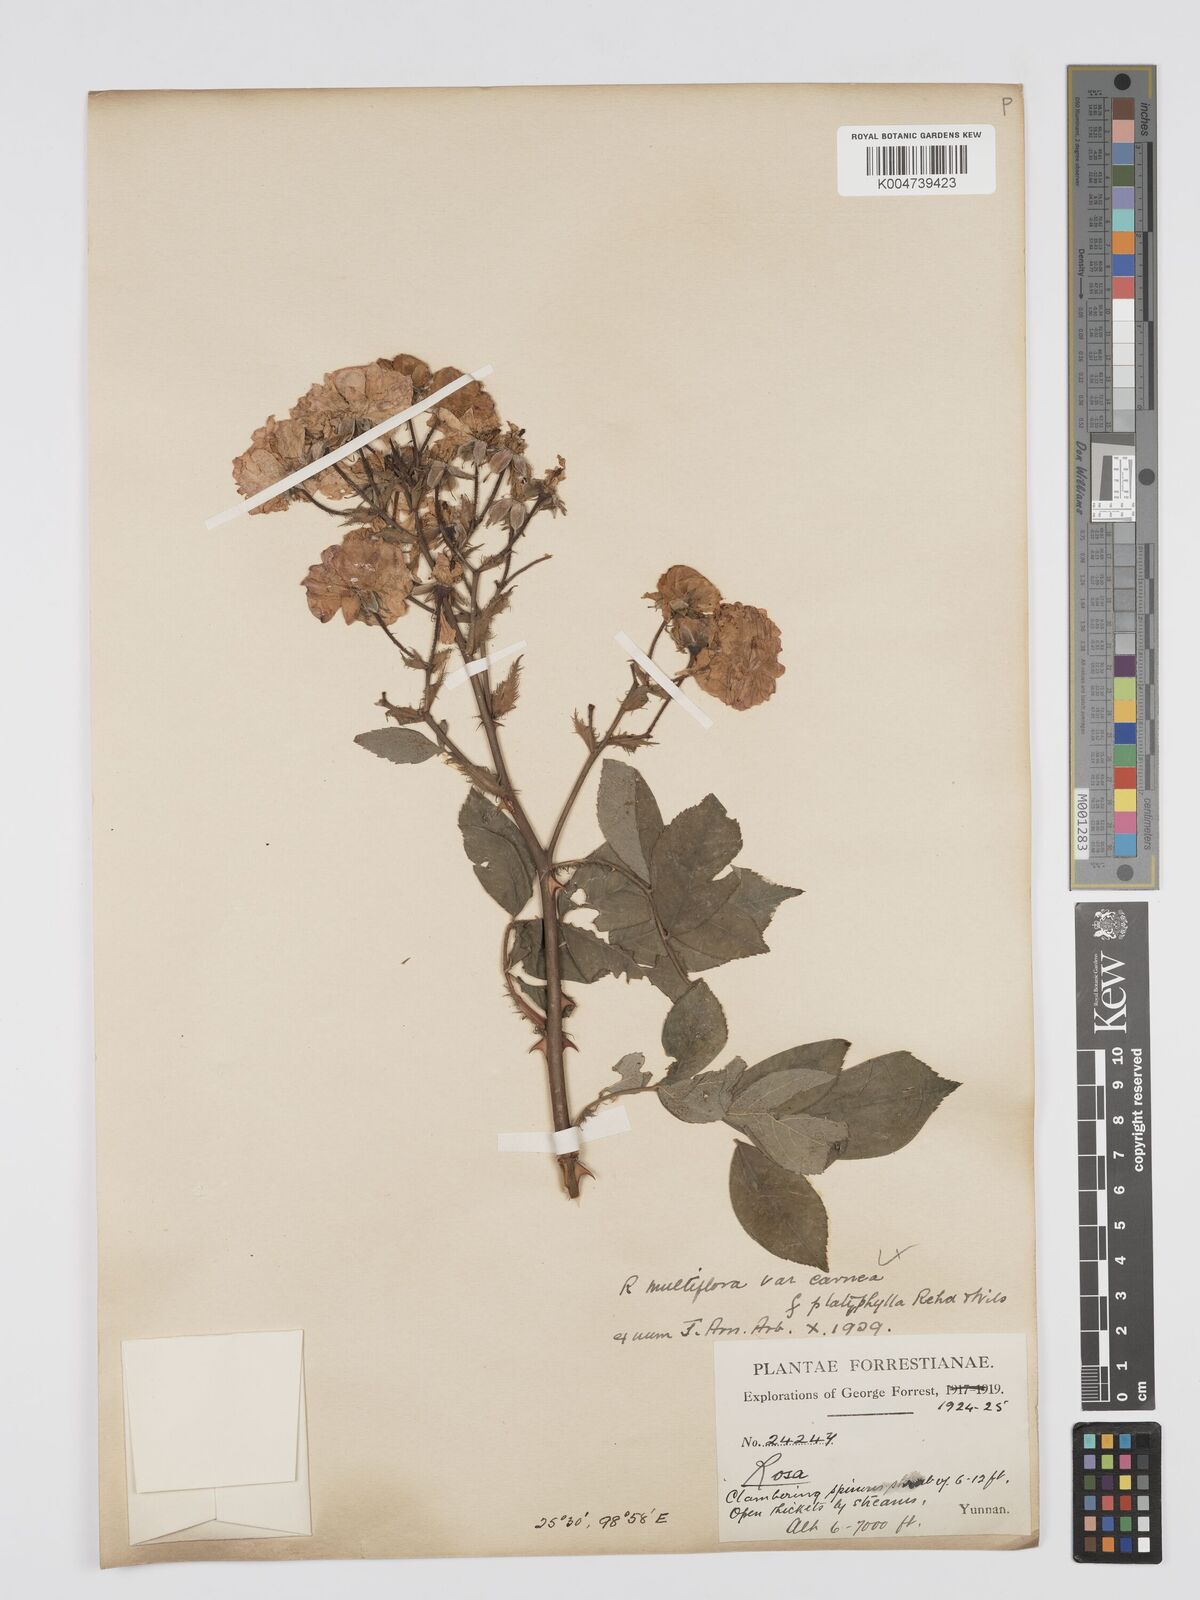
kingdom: Plantae
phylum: Tracheophyta
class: Magnoliopsida
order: Rosales
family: Rosaceae
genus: Rosa
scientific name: Rosa multiflora
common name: Multiflora rose
